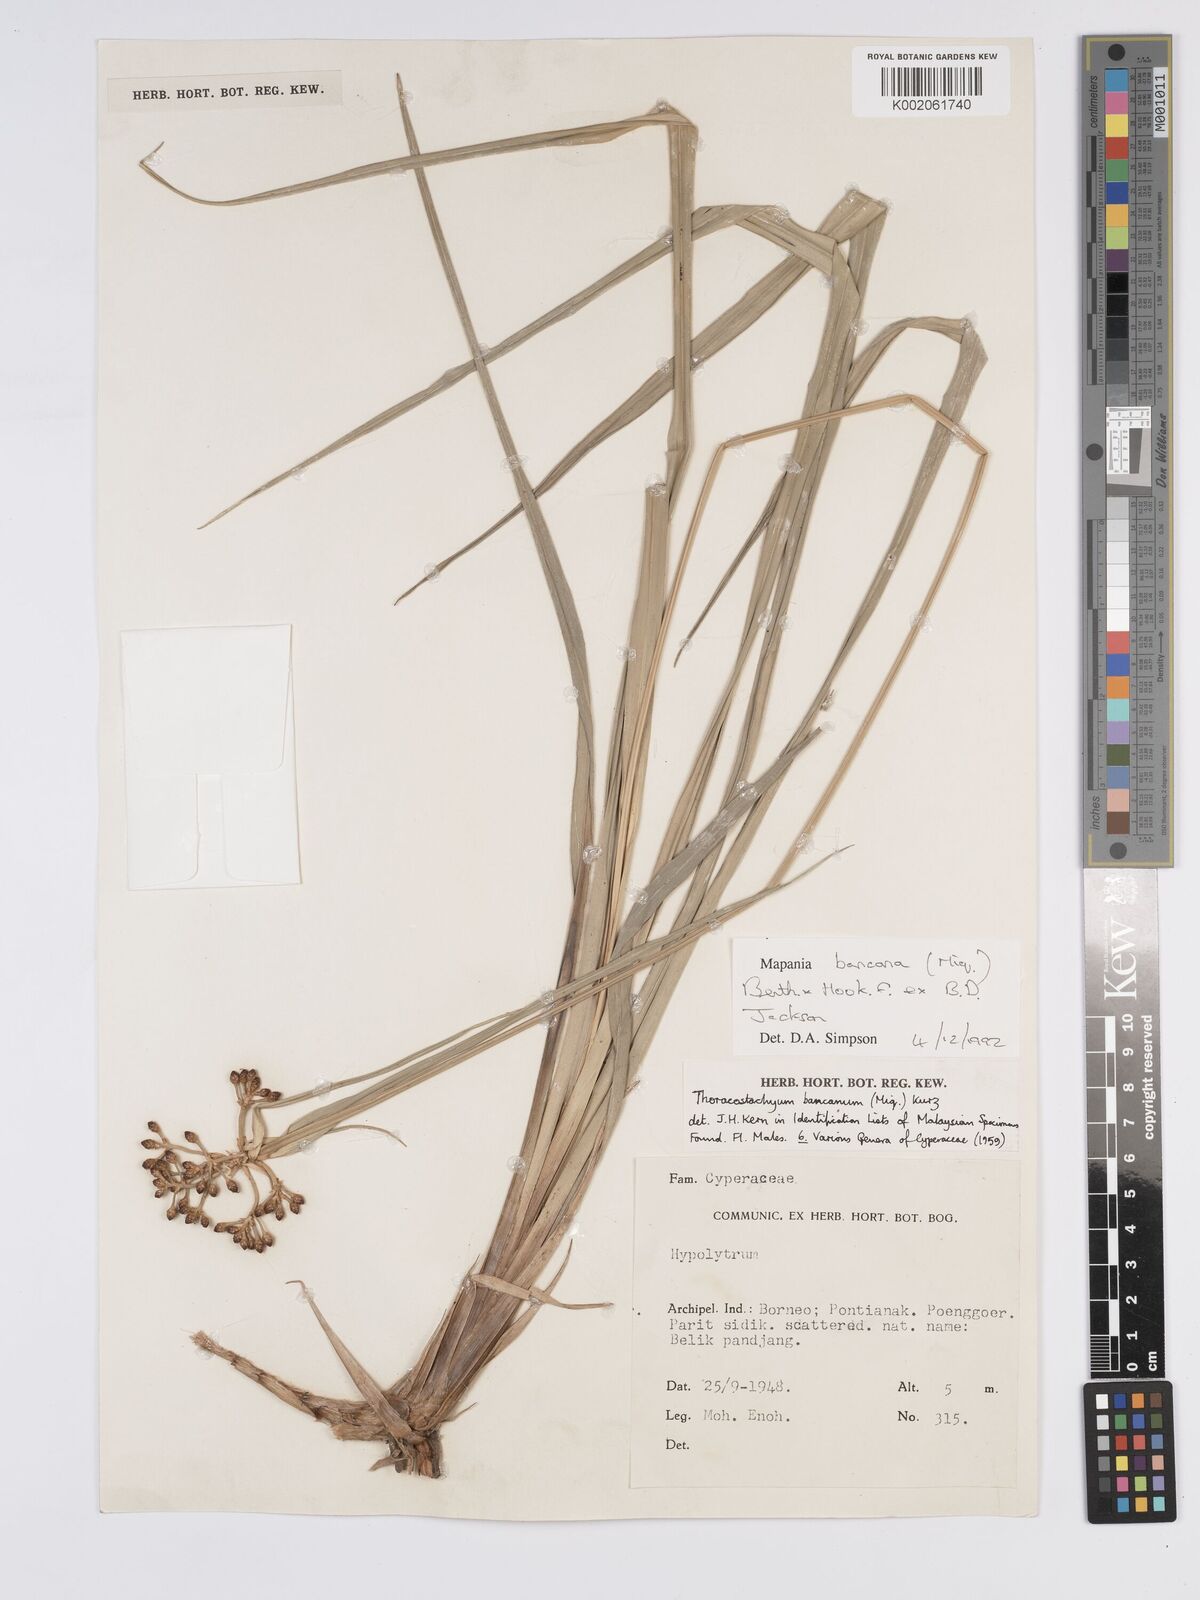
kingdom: Plantae
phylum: Tracheophyta
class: Liliopsida
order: Poales
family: Cyperaceae
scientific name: Cyperaceae
